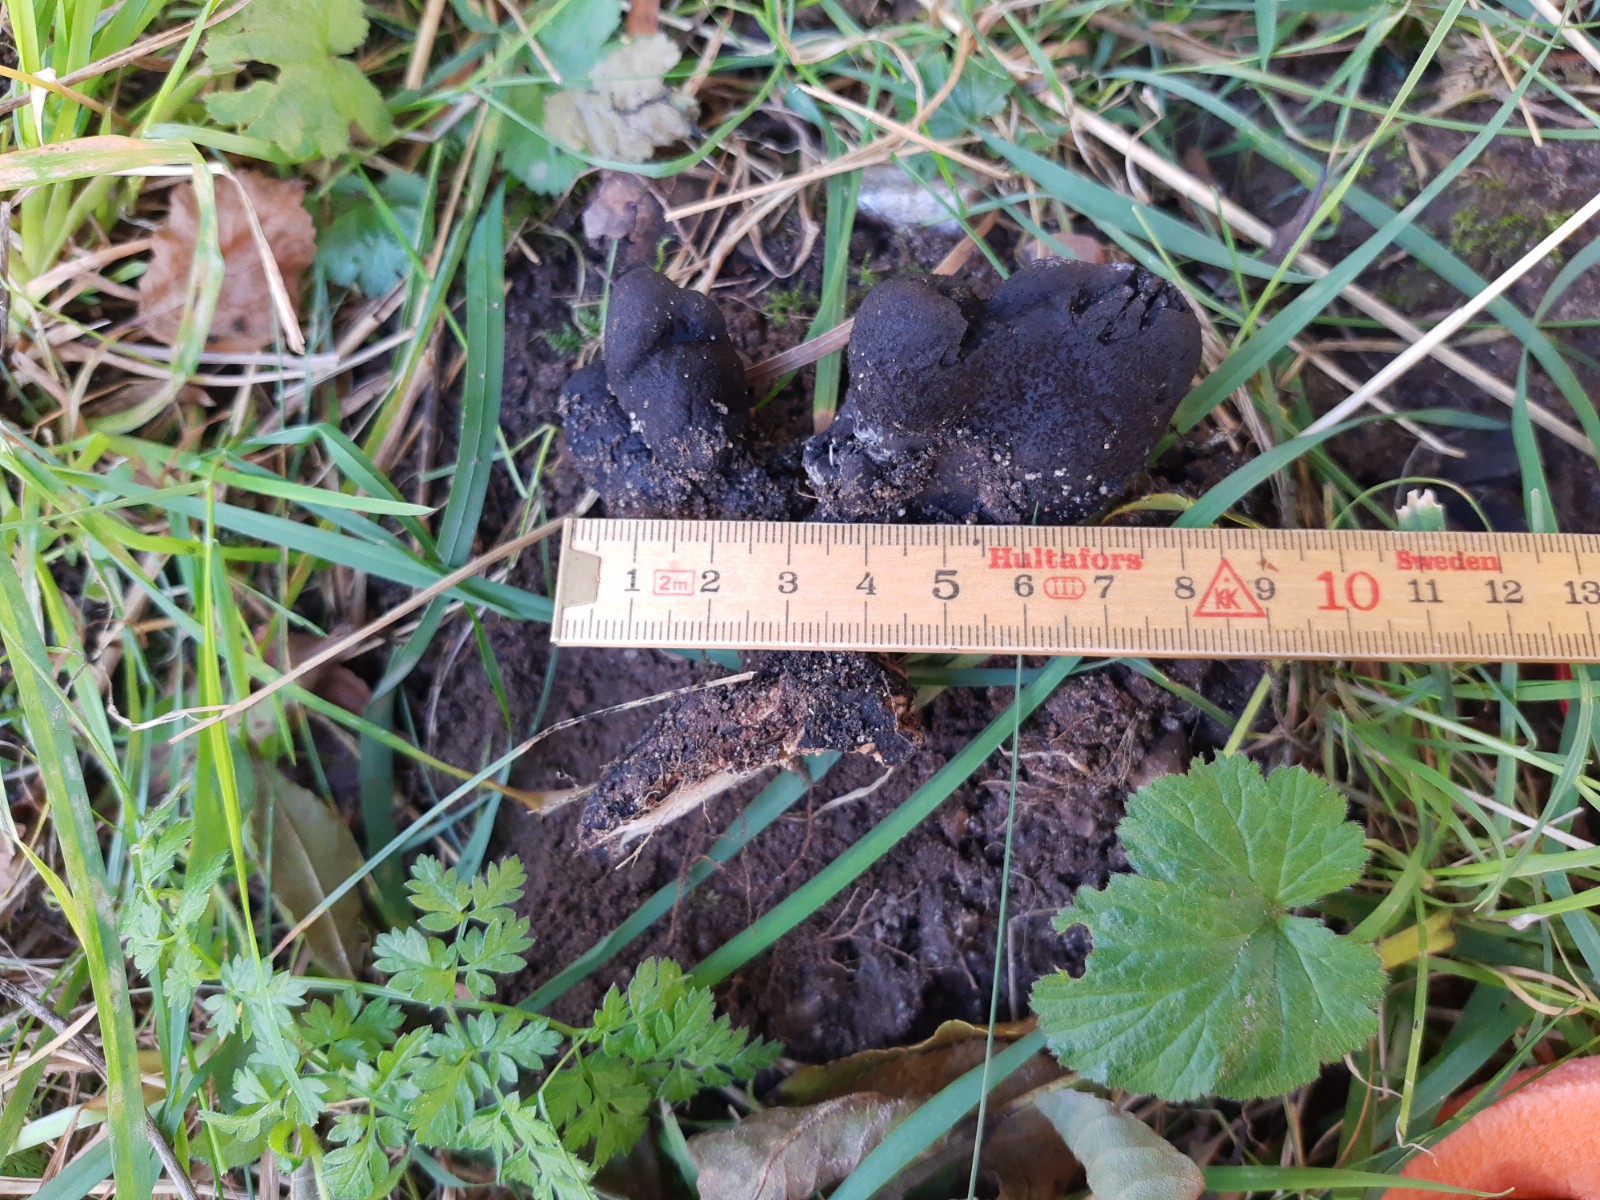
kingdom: Fungi
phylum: Ascomycota
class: Sordariomycetes
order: Xylariales
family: Xylariaceae
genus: Xylaria
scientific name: Xylaria polymorpha
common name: kølle-stødsvamp
